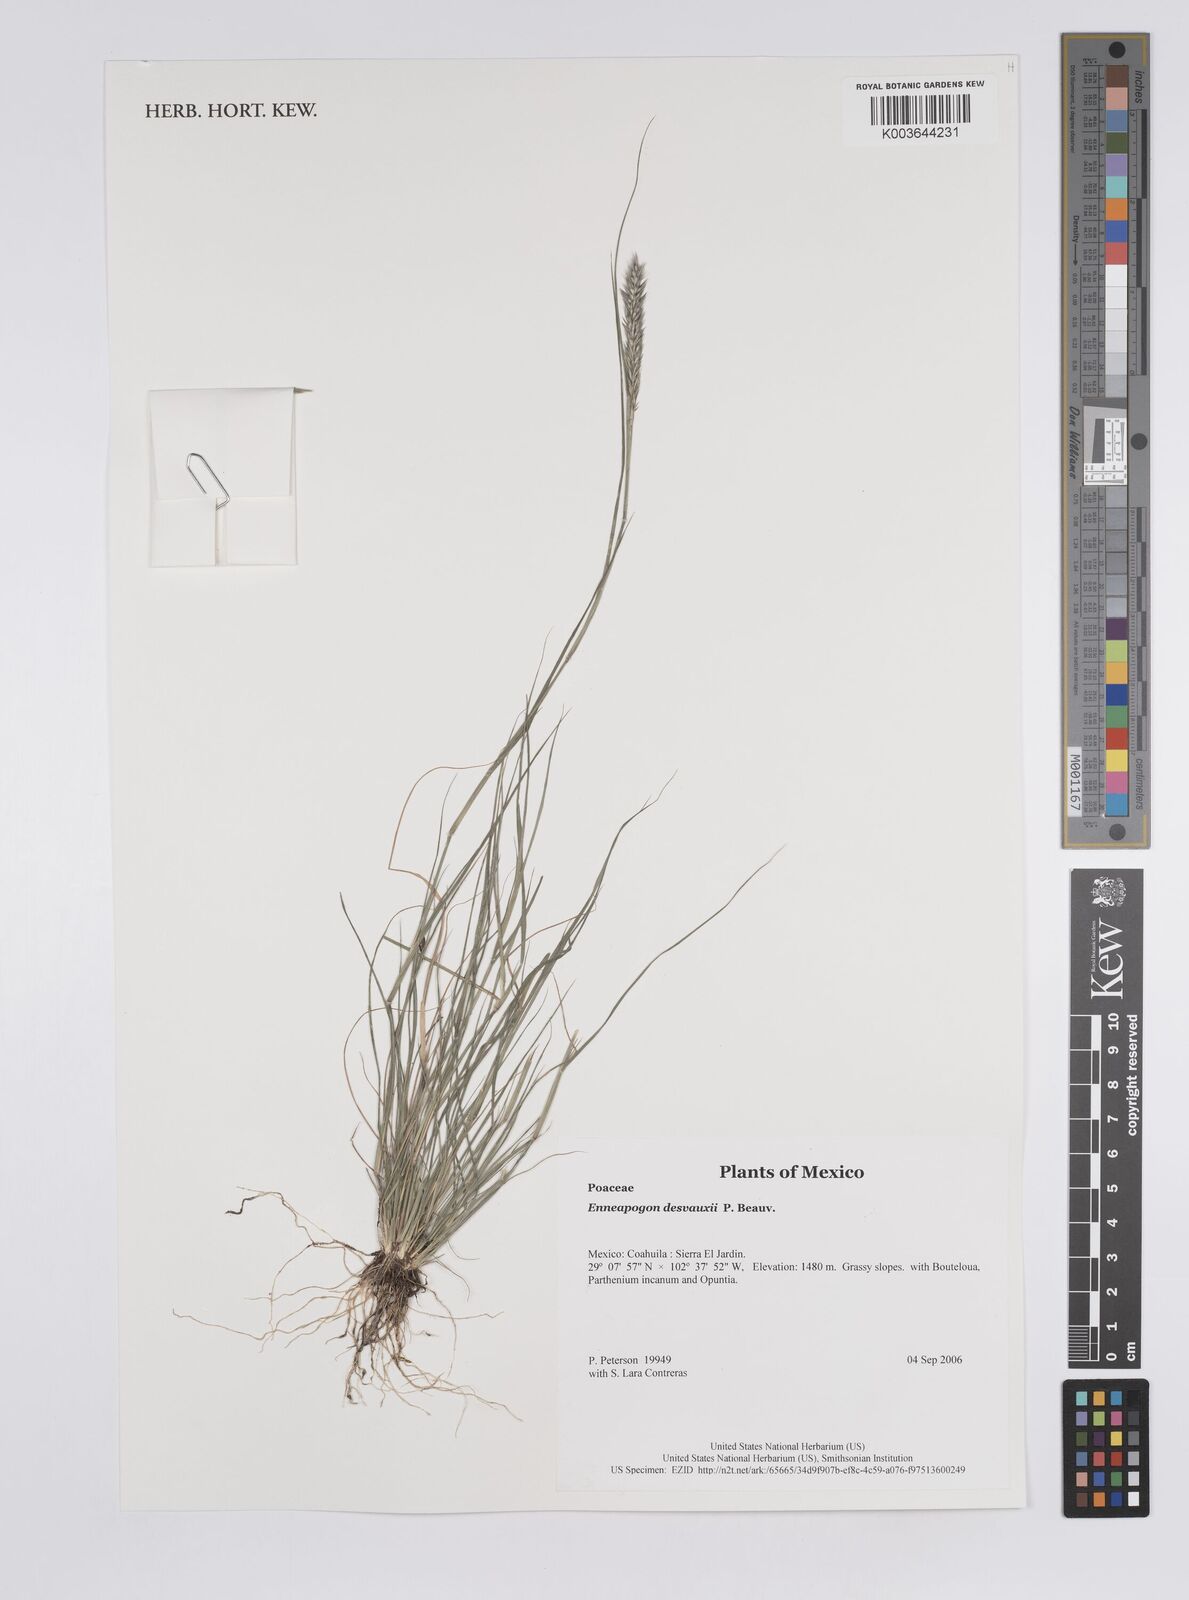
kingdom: Plantae
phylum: Tracheophyta
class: Liliopsida
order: Poales
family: Poaceae
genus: Enneapogon
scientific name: Enneapogon desvauxii
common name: Feather pappus grass
